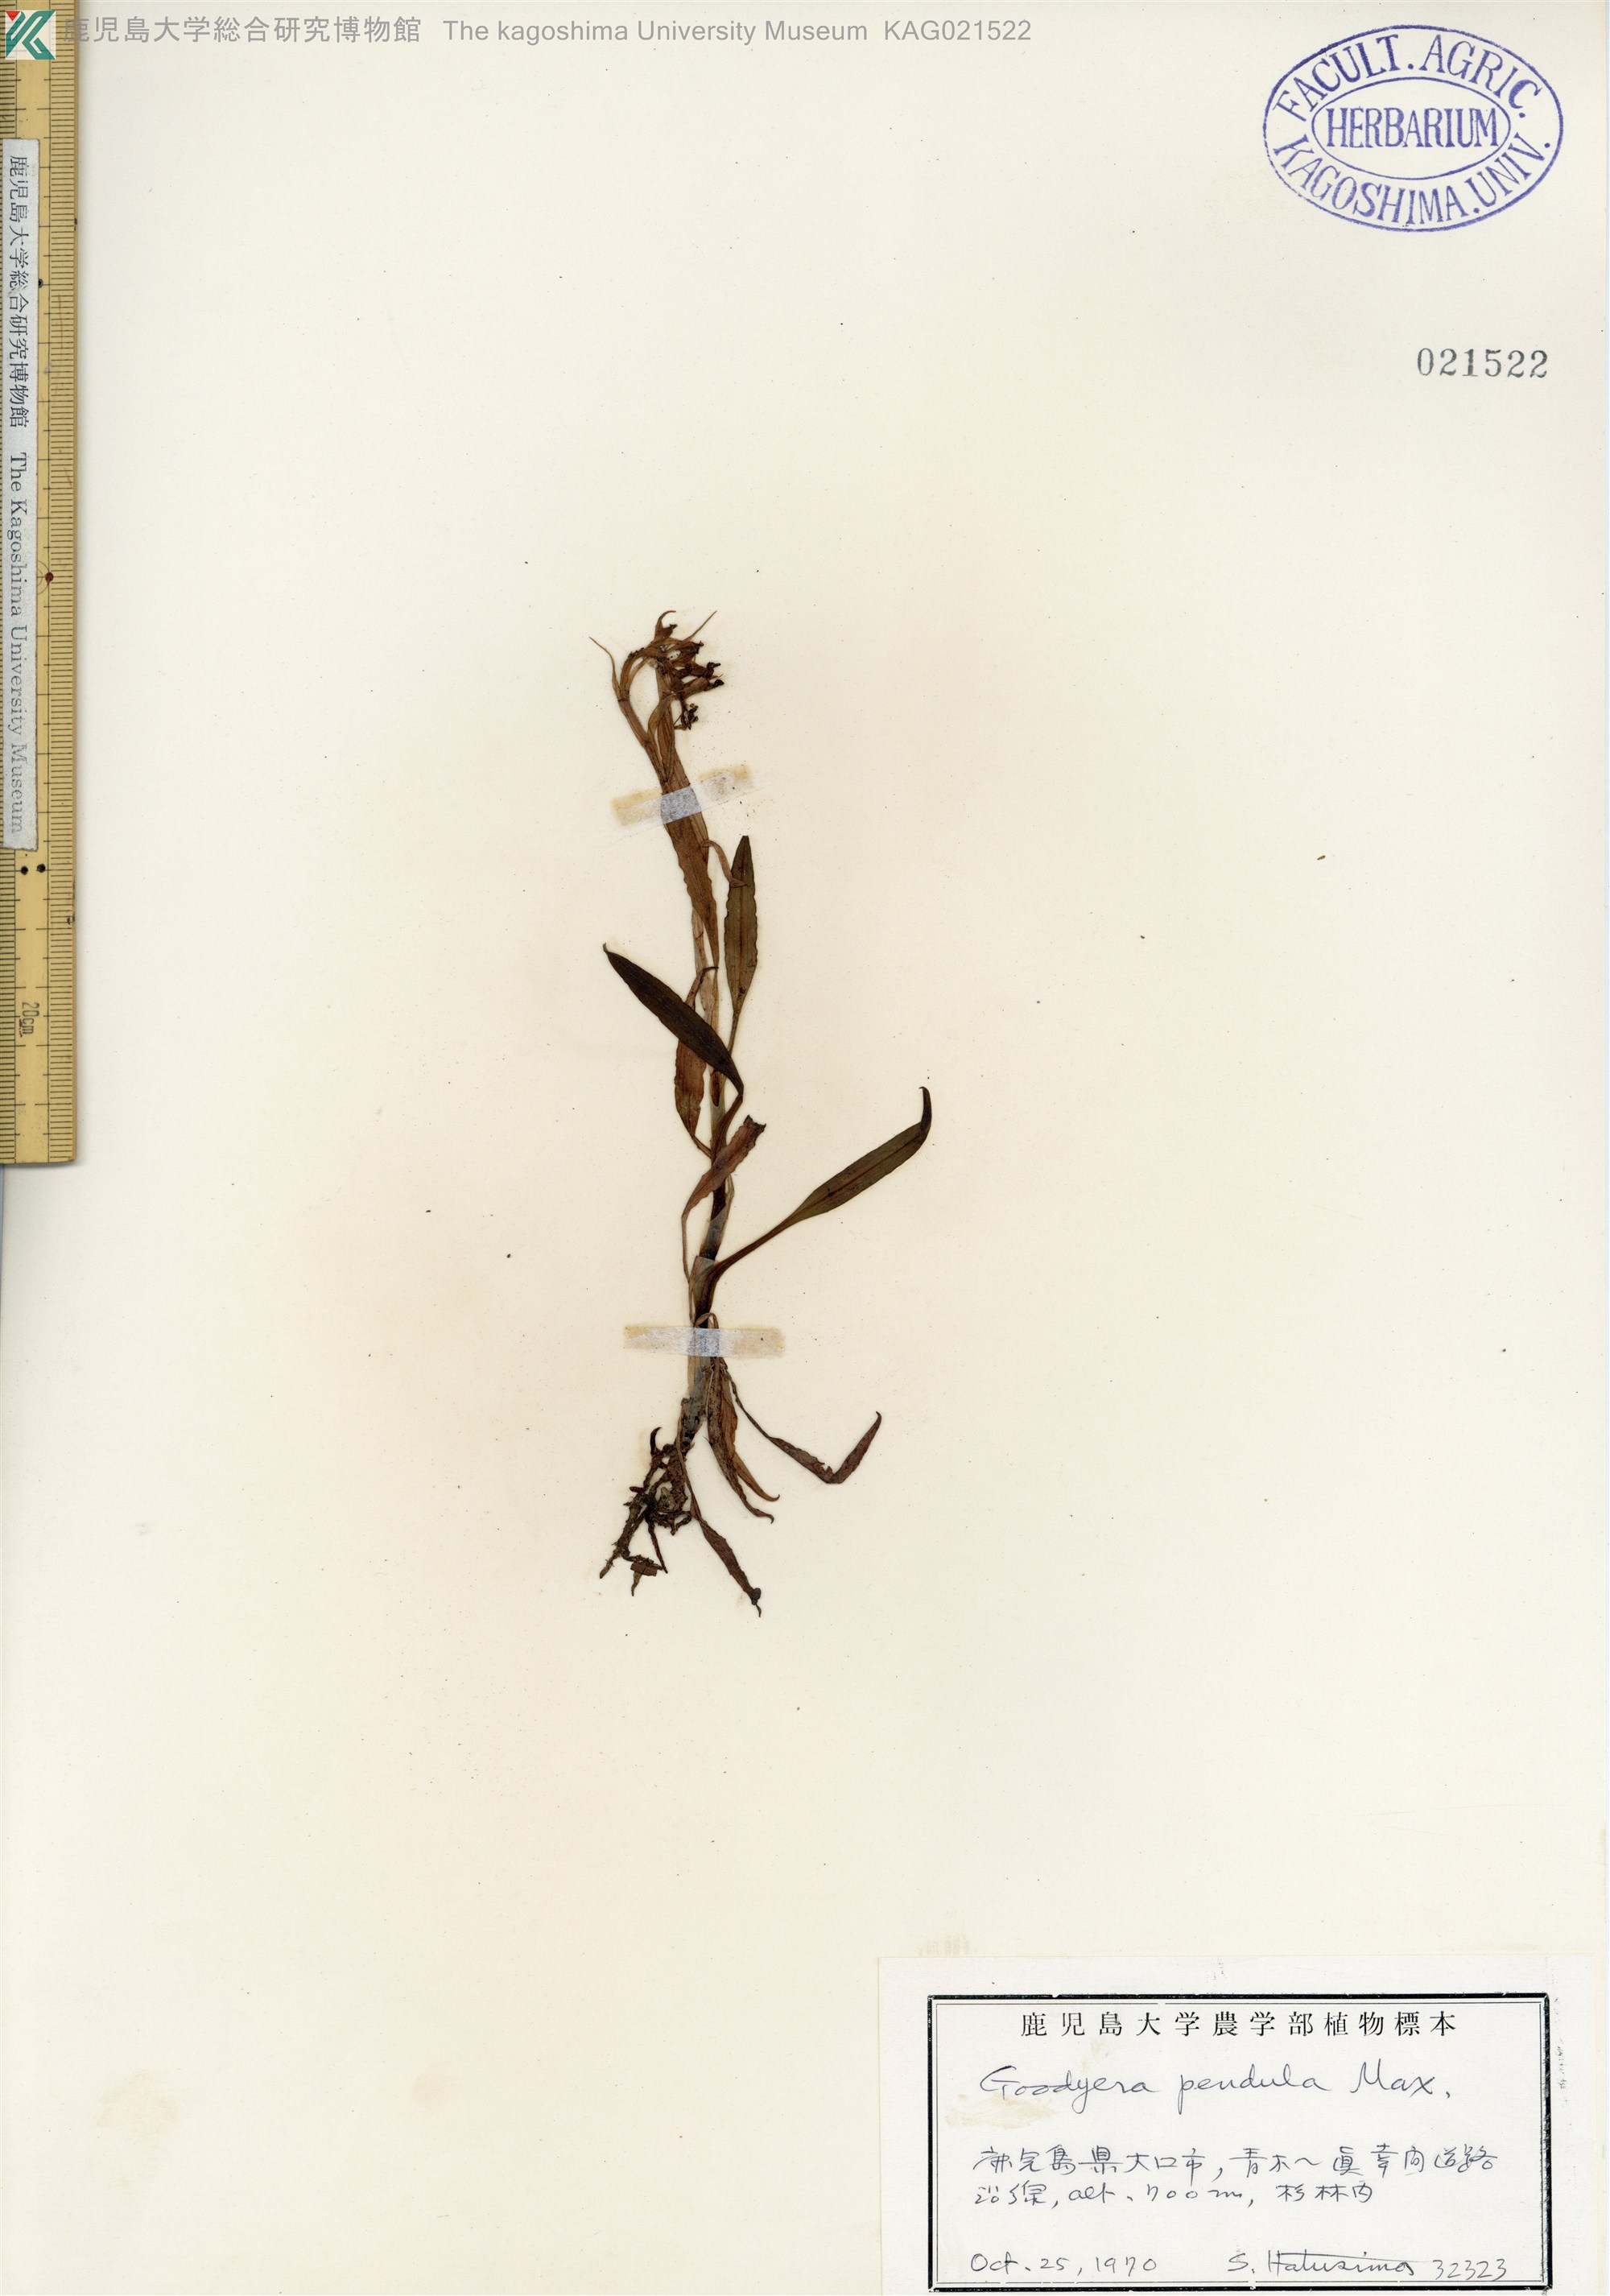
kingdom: Plantae
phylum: Tracheophyta
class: Liliopsida
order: Asparagales
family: Orchidaceae
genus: Goodyera
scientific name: Goodyera pendula
